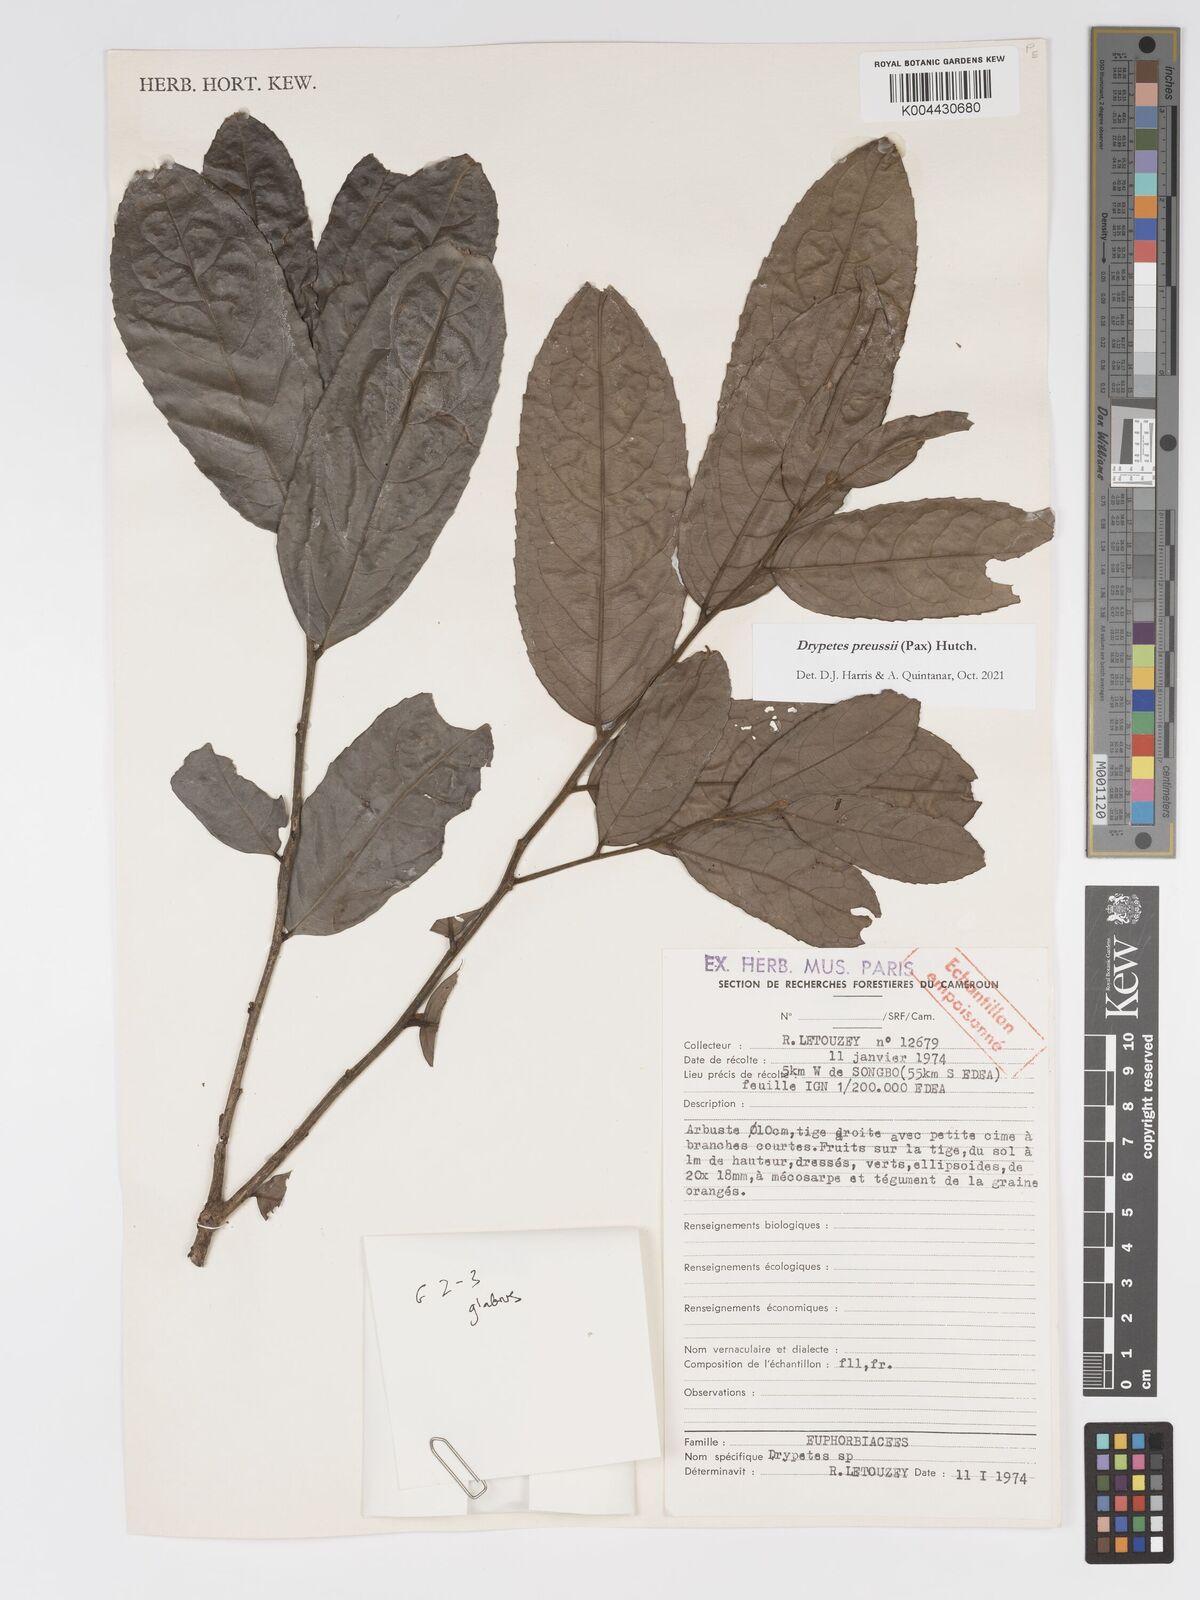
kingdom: Plantae
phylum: Tracheophyta
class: Magnoliopsida
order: Malpighiales
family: Putranjivaceae
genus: Drypetes
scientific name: Drypetes preussii
